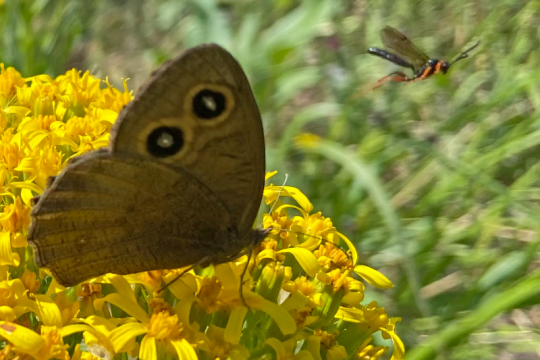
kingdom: Animalia
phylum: Arthropoda
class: Insecta
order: Lepidoptera
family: Nymphalidae
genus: Cercyonis
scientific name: Cercyonis pegala
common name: Common Wood-Nymph
